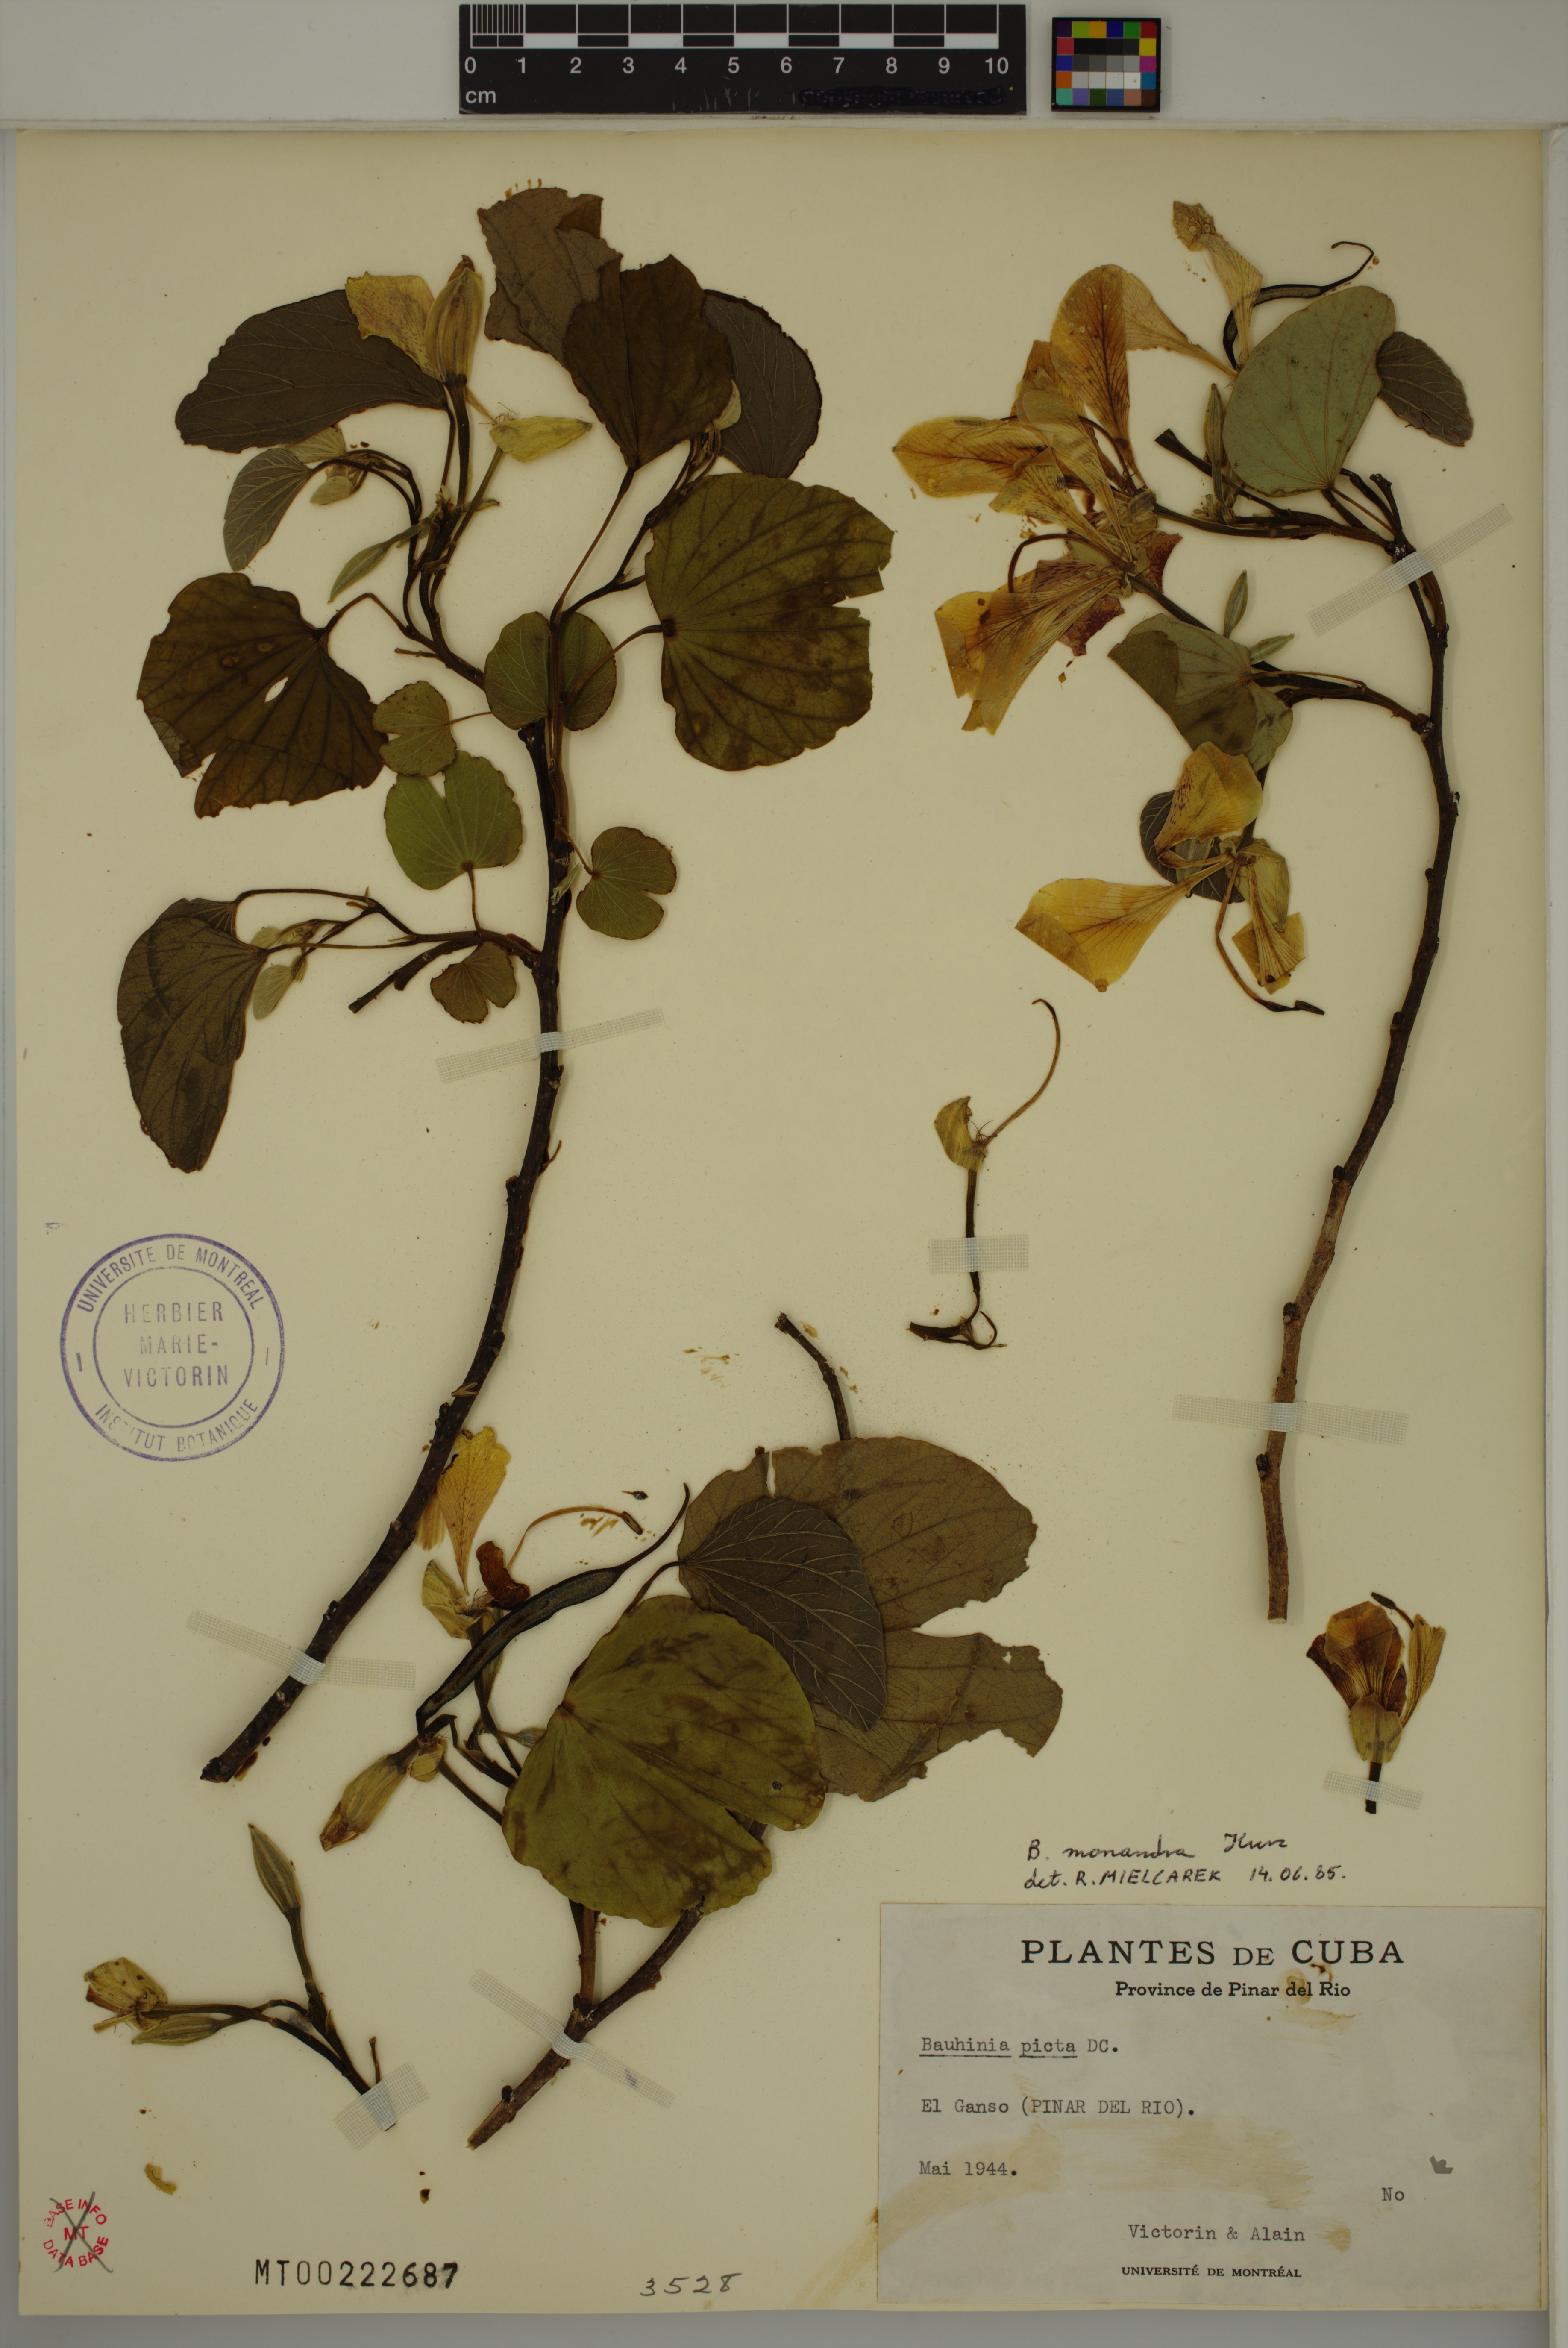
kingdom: Plantae
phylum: Tracheophyta
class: Magnoliopsida
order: Fabales
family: Fabaceae
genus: Bauhinia
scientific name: Bauhinia monandra
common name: Napoleon's plume
